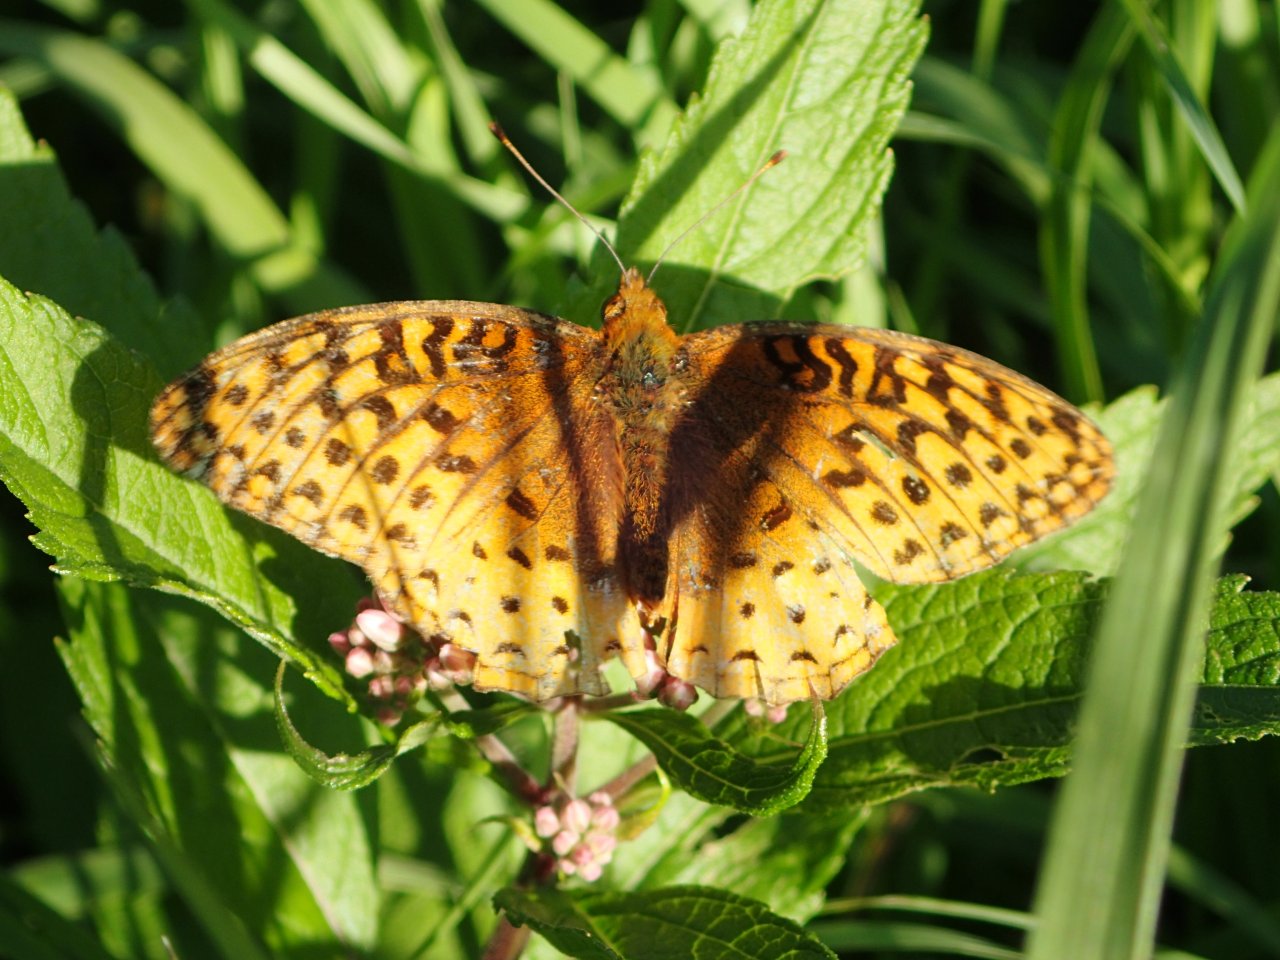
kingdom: Animalia
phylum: Arthropoda
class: Insecta
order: Lepidoptera
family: Nymphalidae
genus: Speyeria
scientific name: Speyeria cybele
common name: Great Spangled Fritillary
